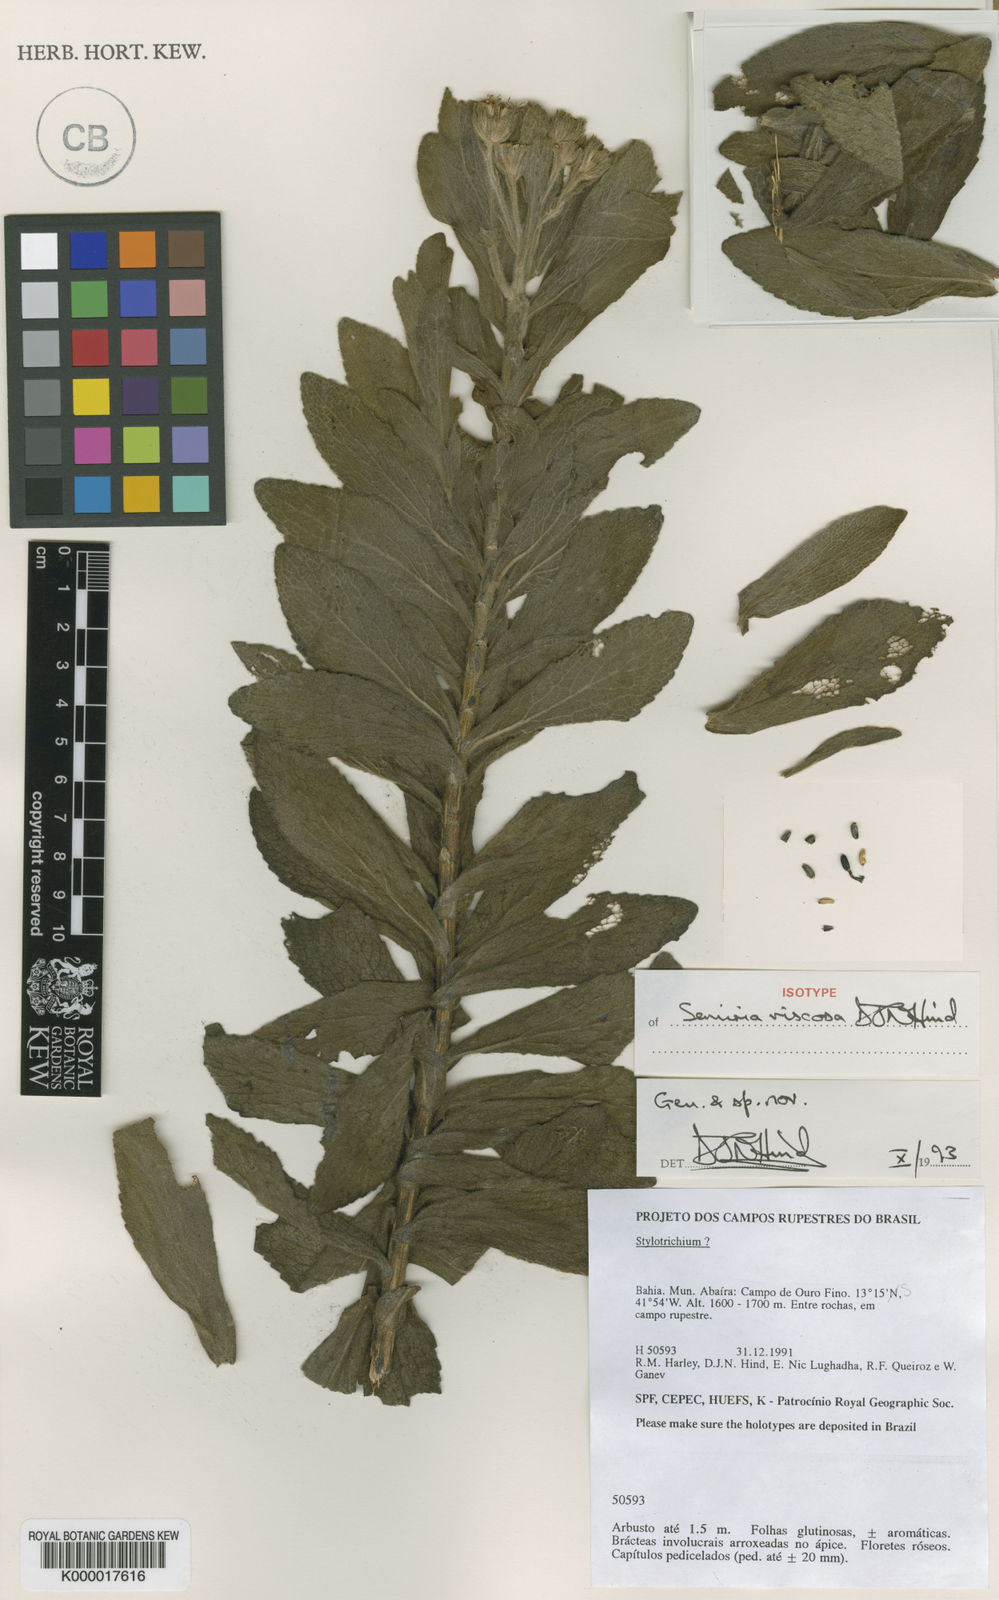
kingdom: Plantae
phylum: Tracheophyta
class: Magnoliopsida
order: Asterales
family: Asteraceae
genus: Semiria
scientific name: Semiria viscosa
